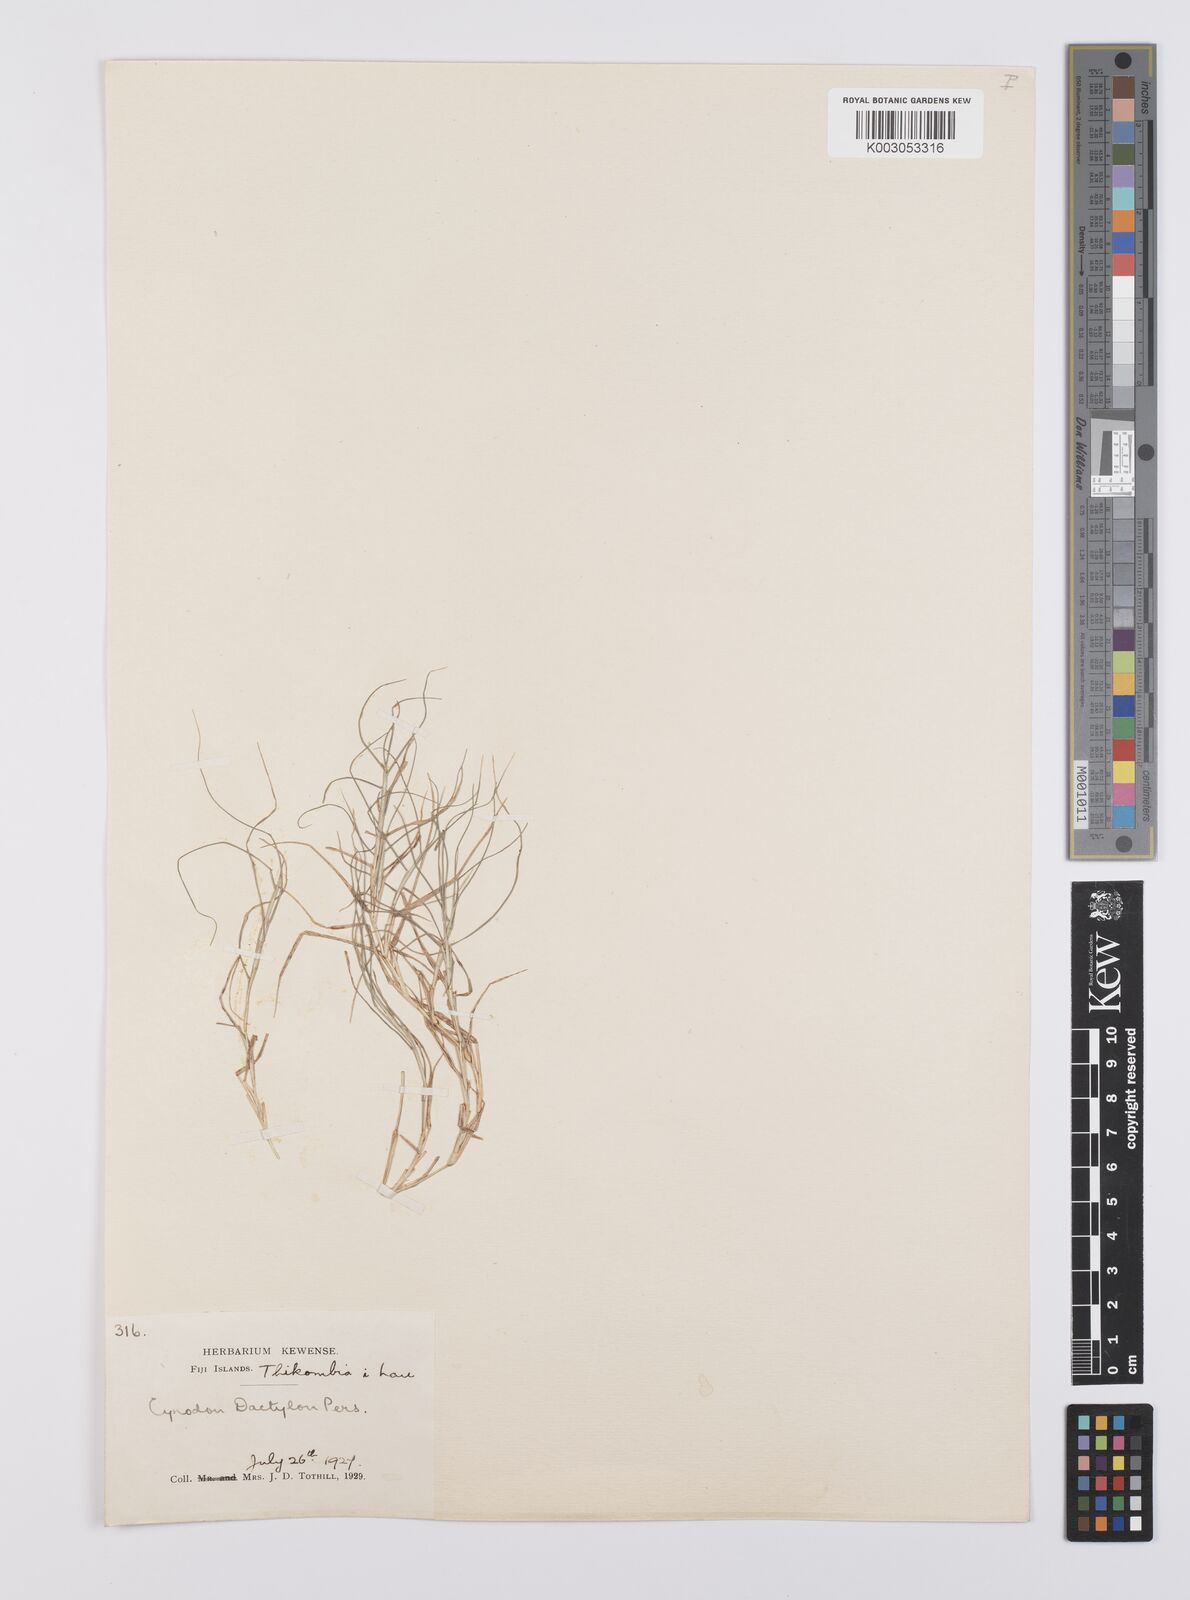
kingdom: Plantae
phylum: Tracheophyta
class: Liliopsida
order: Poales
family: Poaceae
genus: Cynodon
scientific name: Cynodon dactylon
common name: Bermuda grass
